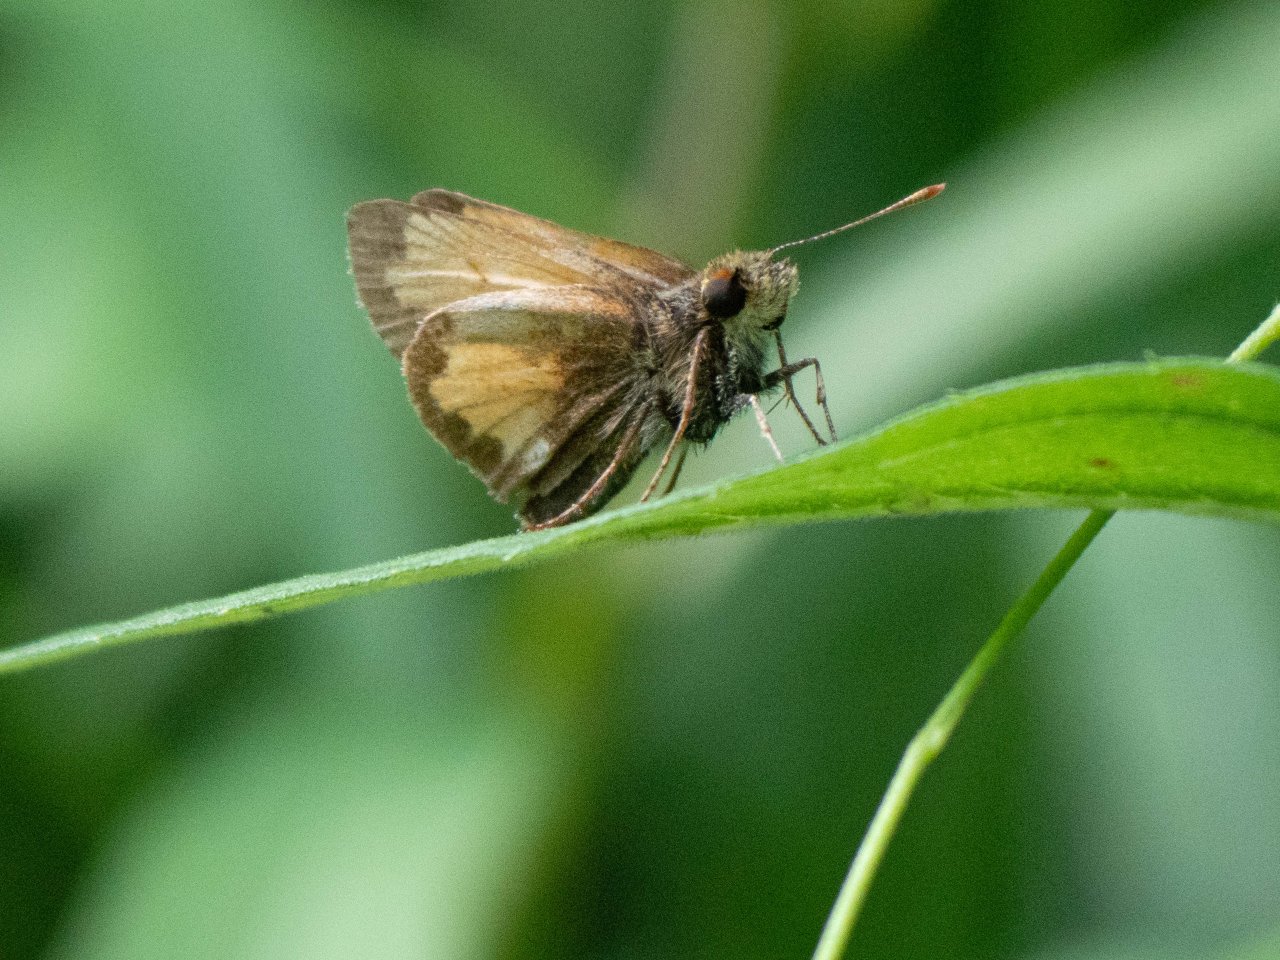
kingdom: Animalia
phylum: Arthropoda
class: Insecta
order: Lepidoptera
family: Hesperiidae
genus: Lon
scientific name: Lon hobomok
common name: Hobomok Skipper
